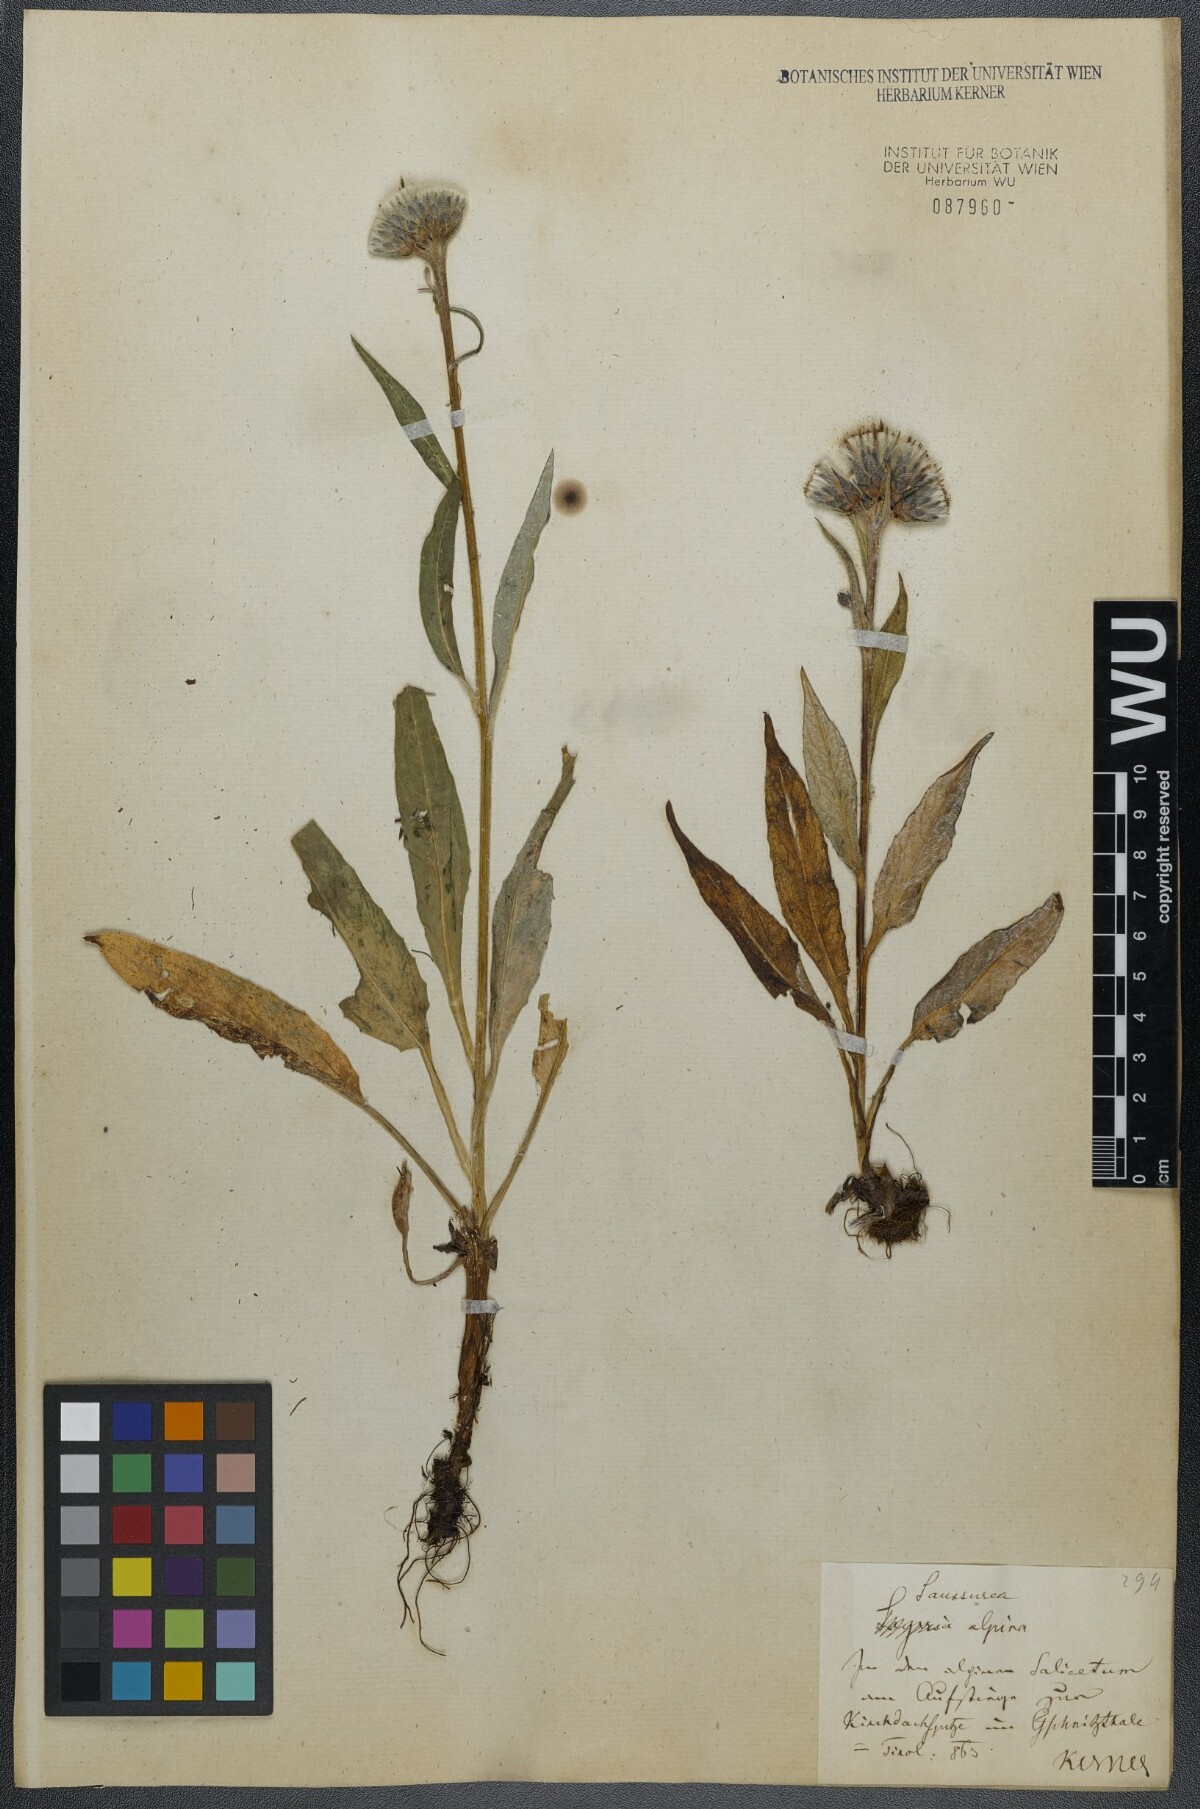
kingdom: Plantae
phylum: Tracheophyta
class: Magnoliopsida
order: Asterales
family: Asteraceae
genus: Saussurea
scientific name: Saussurea alpina
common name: Alpine saw-wort
